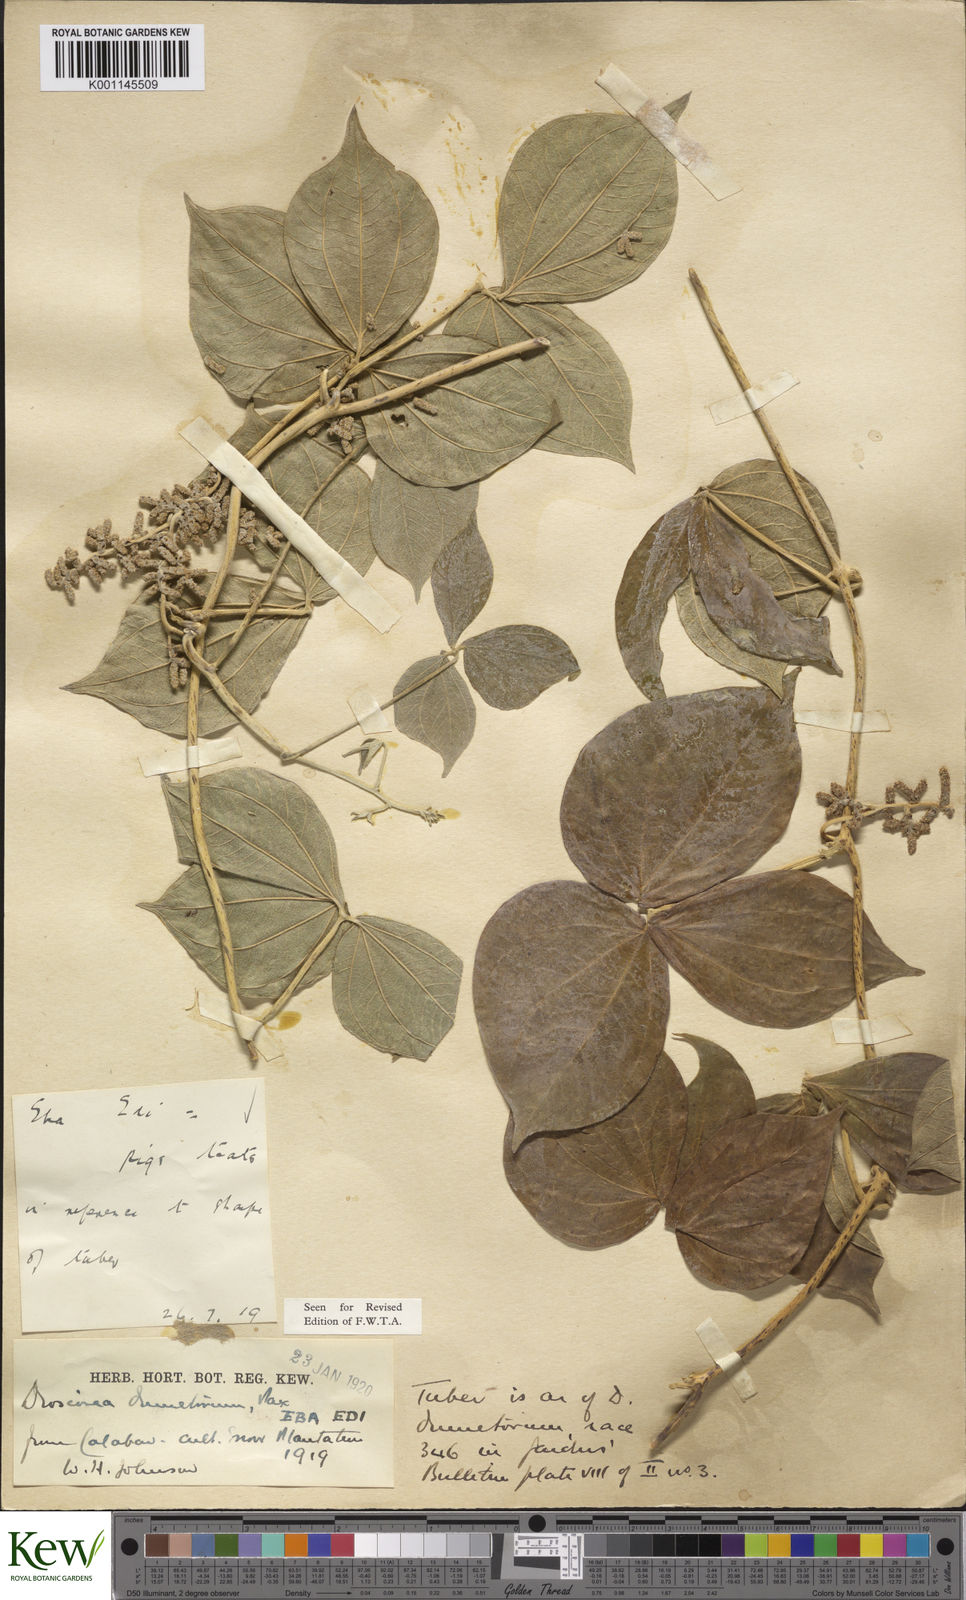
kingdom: Plantae
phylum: Tracheophyta
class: Liliopsida
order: Dioscoreales
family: Dioscoreaceae
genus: Dioscorea
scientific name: Dioscorea dumetorum
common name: African bitter yam
